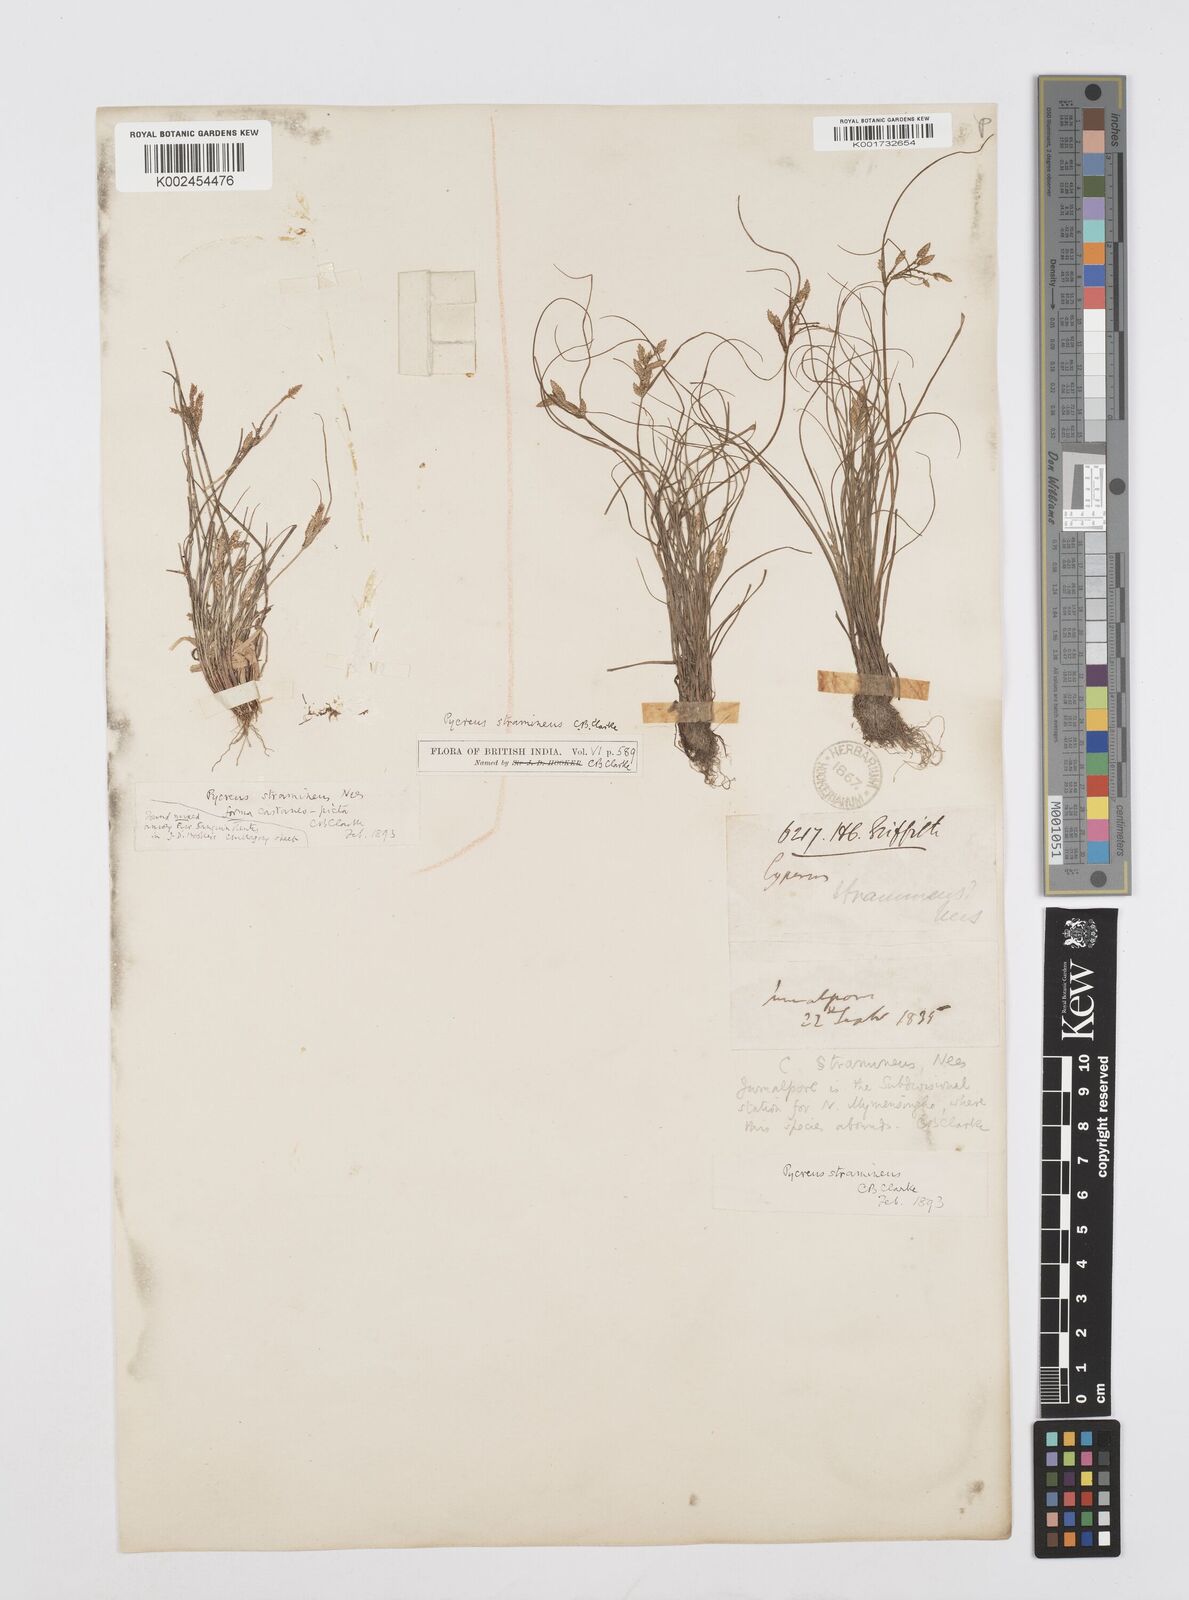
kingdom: Plantae
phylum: Tracheophyta
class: Liliopsida
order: Poales
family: Cyperaceae
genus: Cyperus
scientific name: Cyperus substramineus
